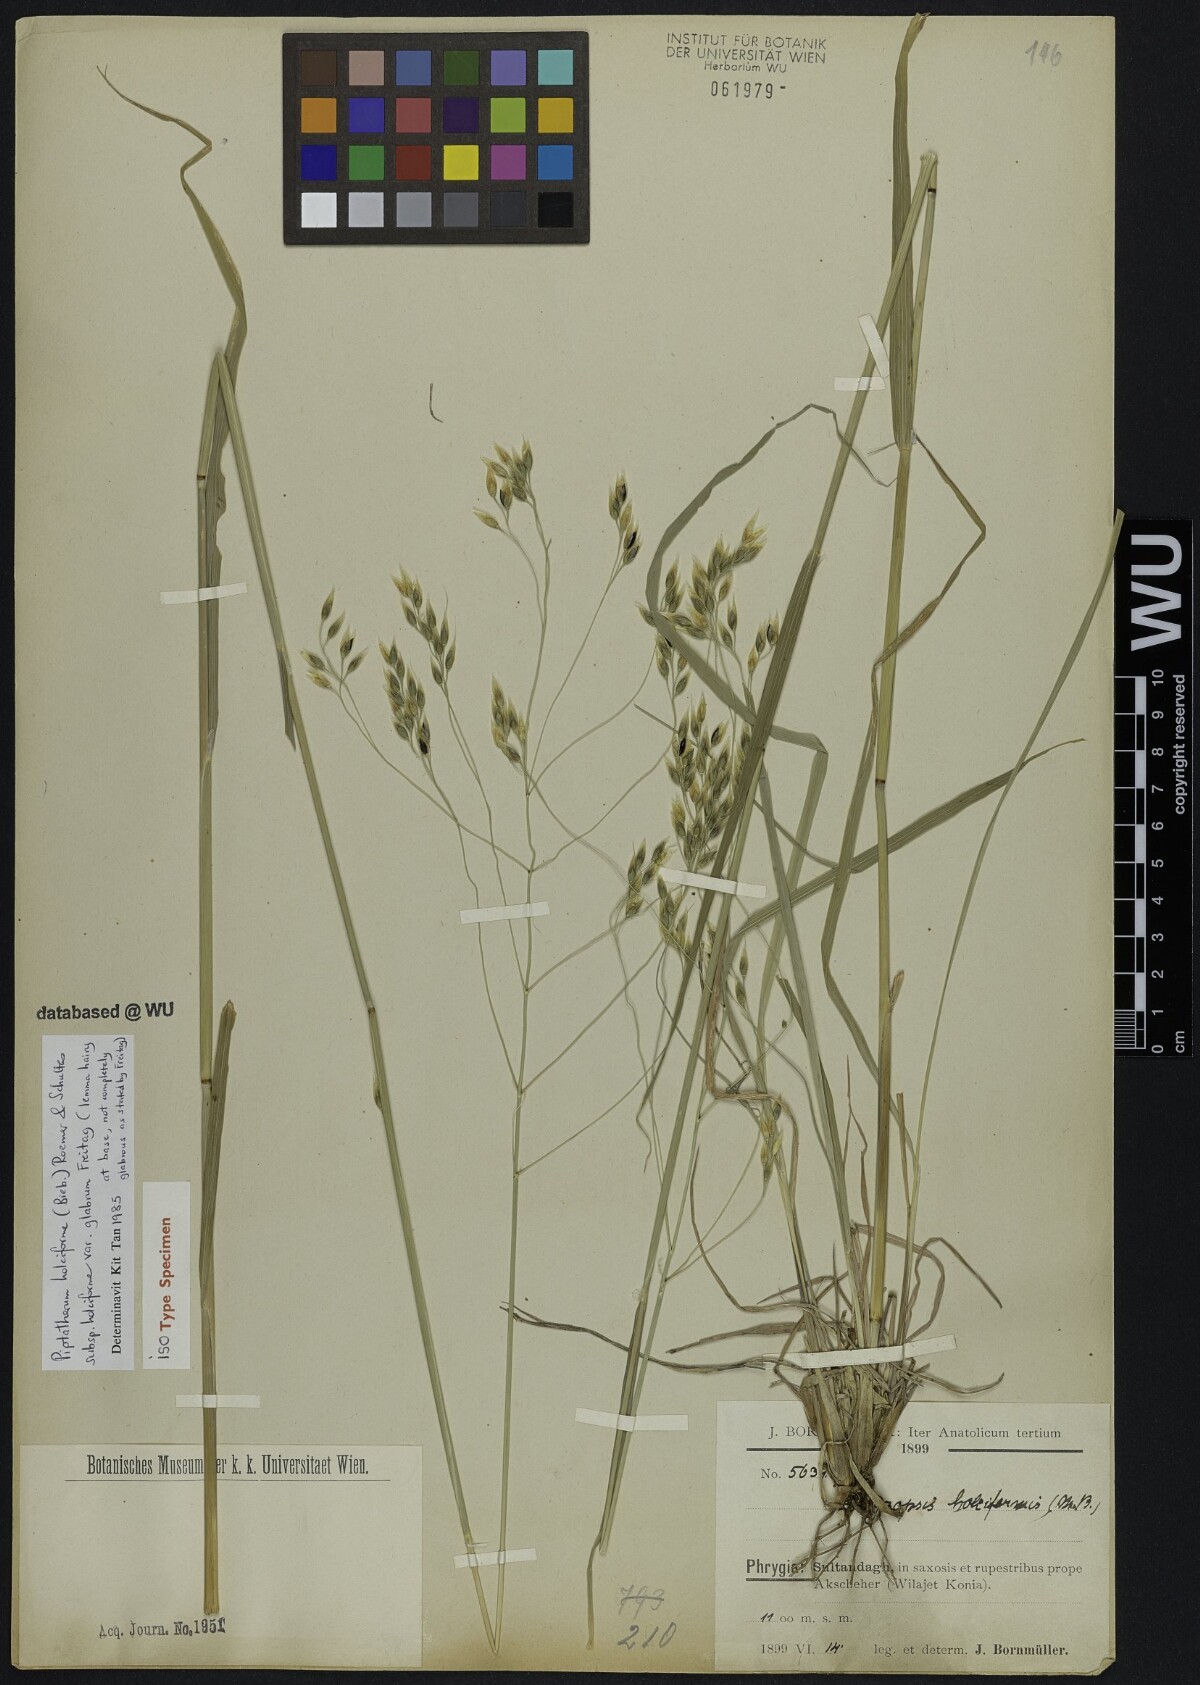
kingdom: Plantae
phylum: Tracheophyta
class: Liliopsida
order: Poales
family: Poaceae
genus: Piptatherum
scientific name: Piptatherum holciforme
